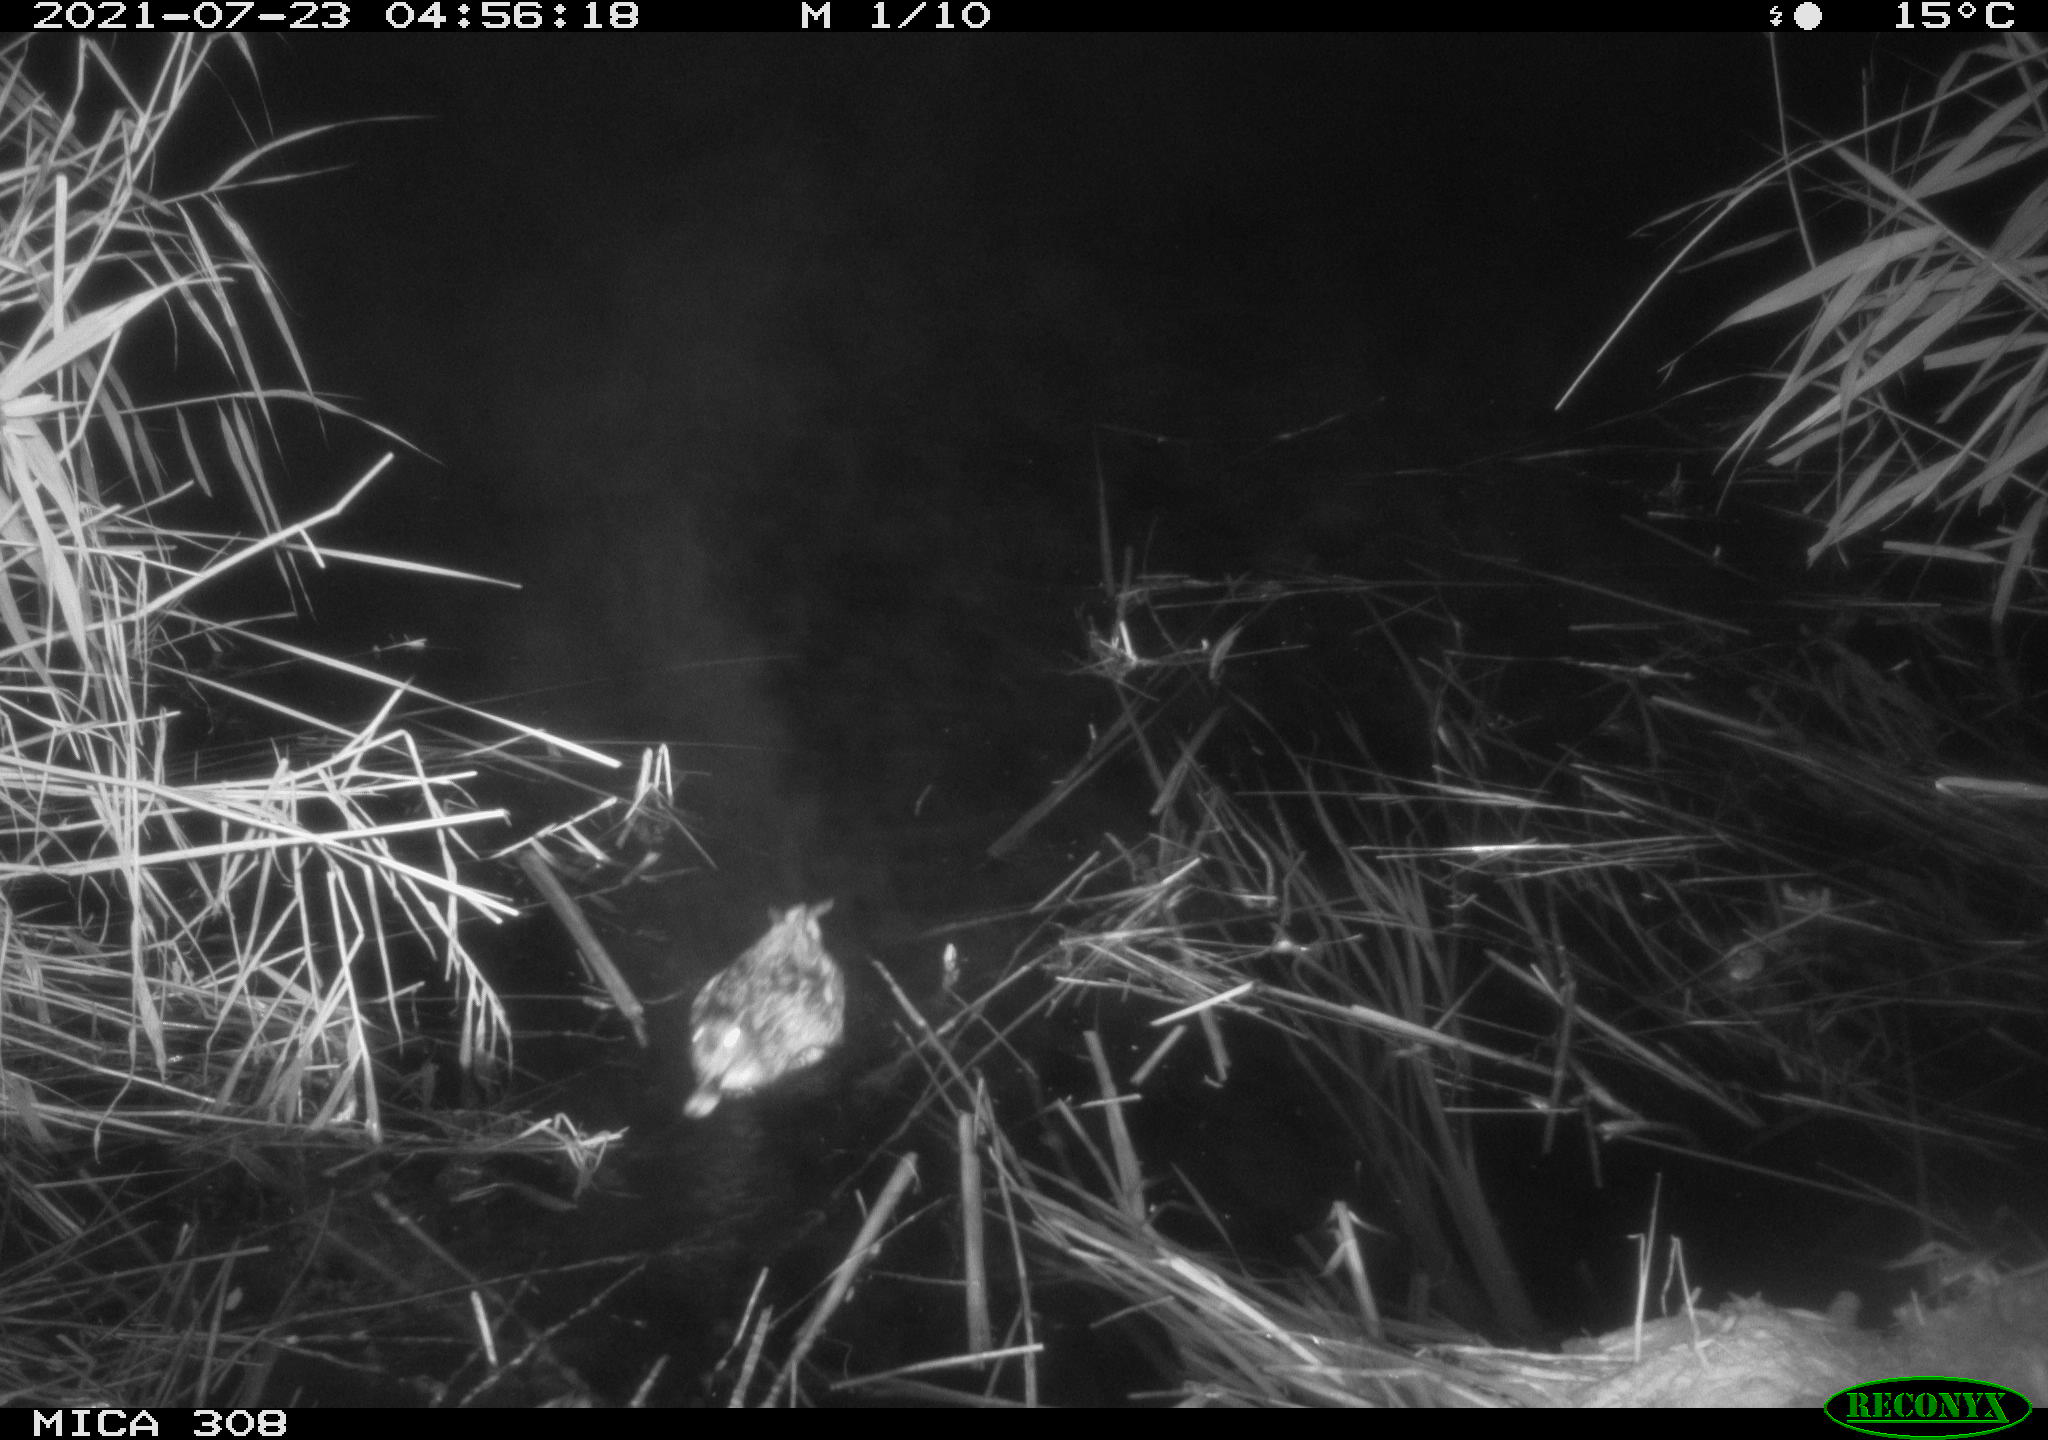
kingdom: Animalia
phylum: Chordata
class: Aves
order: Anseriformes
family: Anatidae
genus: Anas
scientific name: Anas platyrhynchos
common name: Mallard
